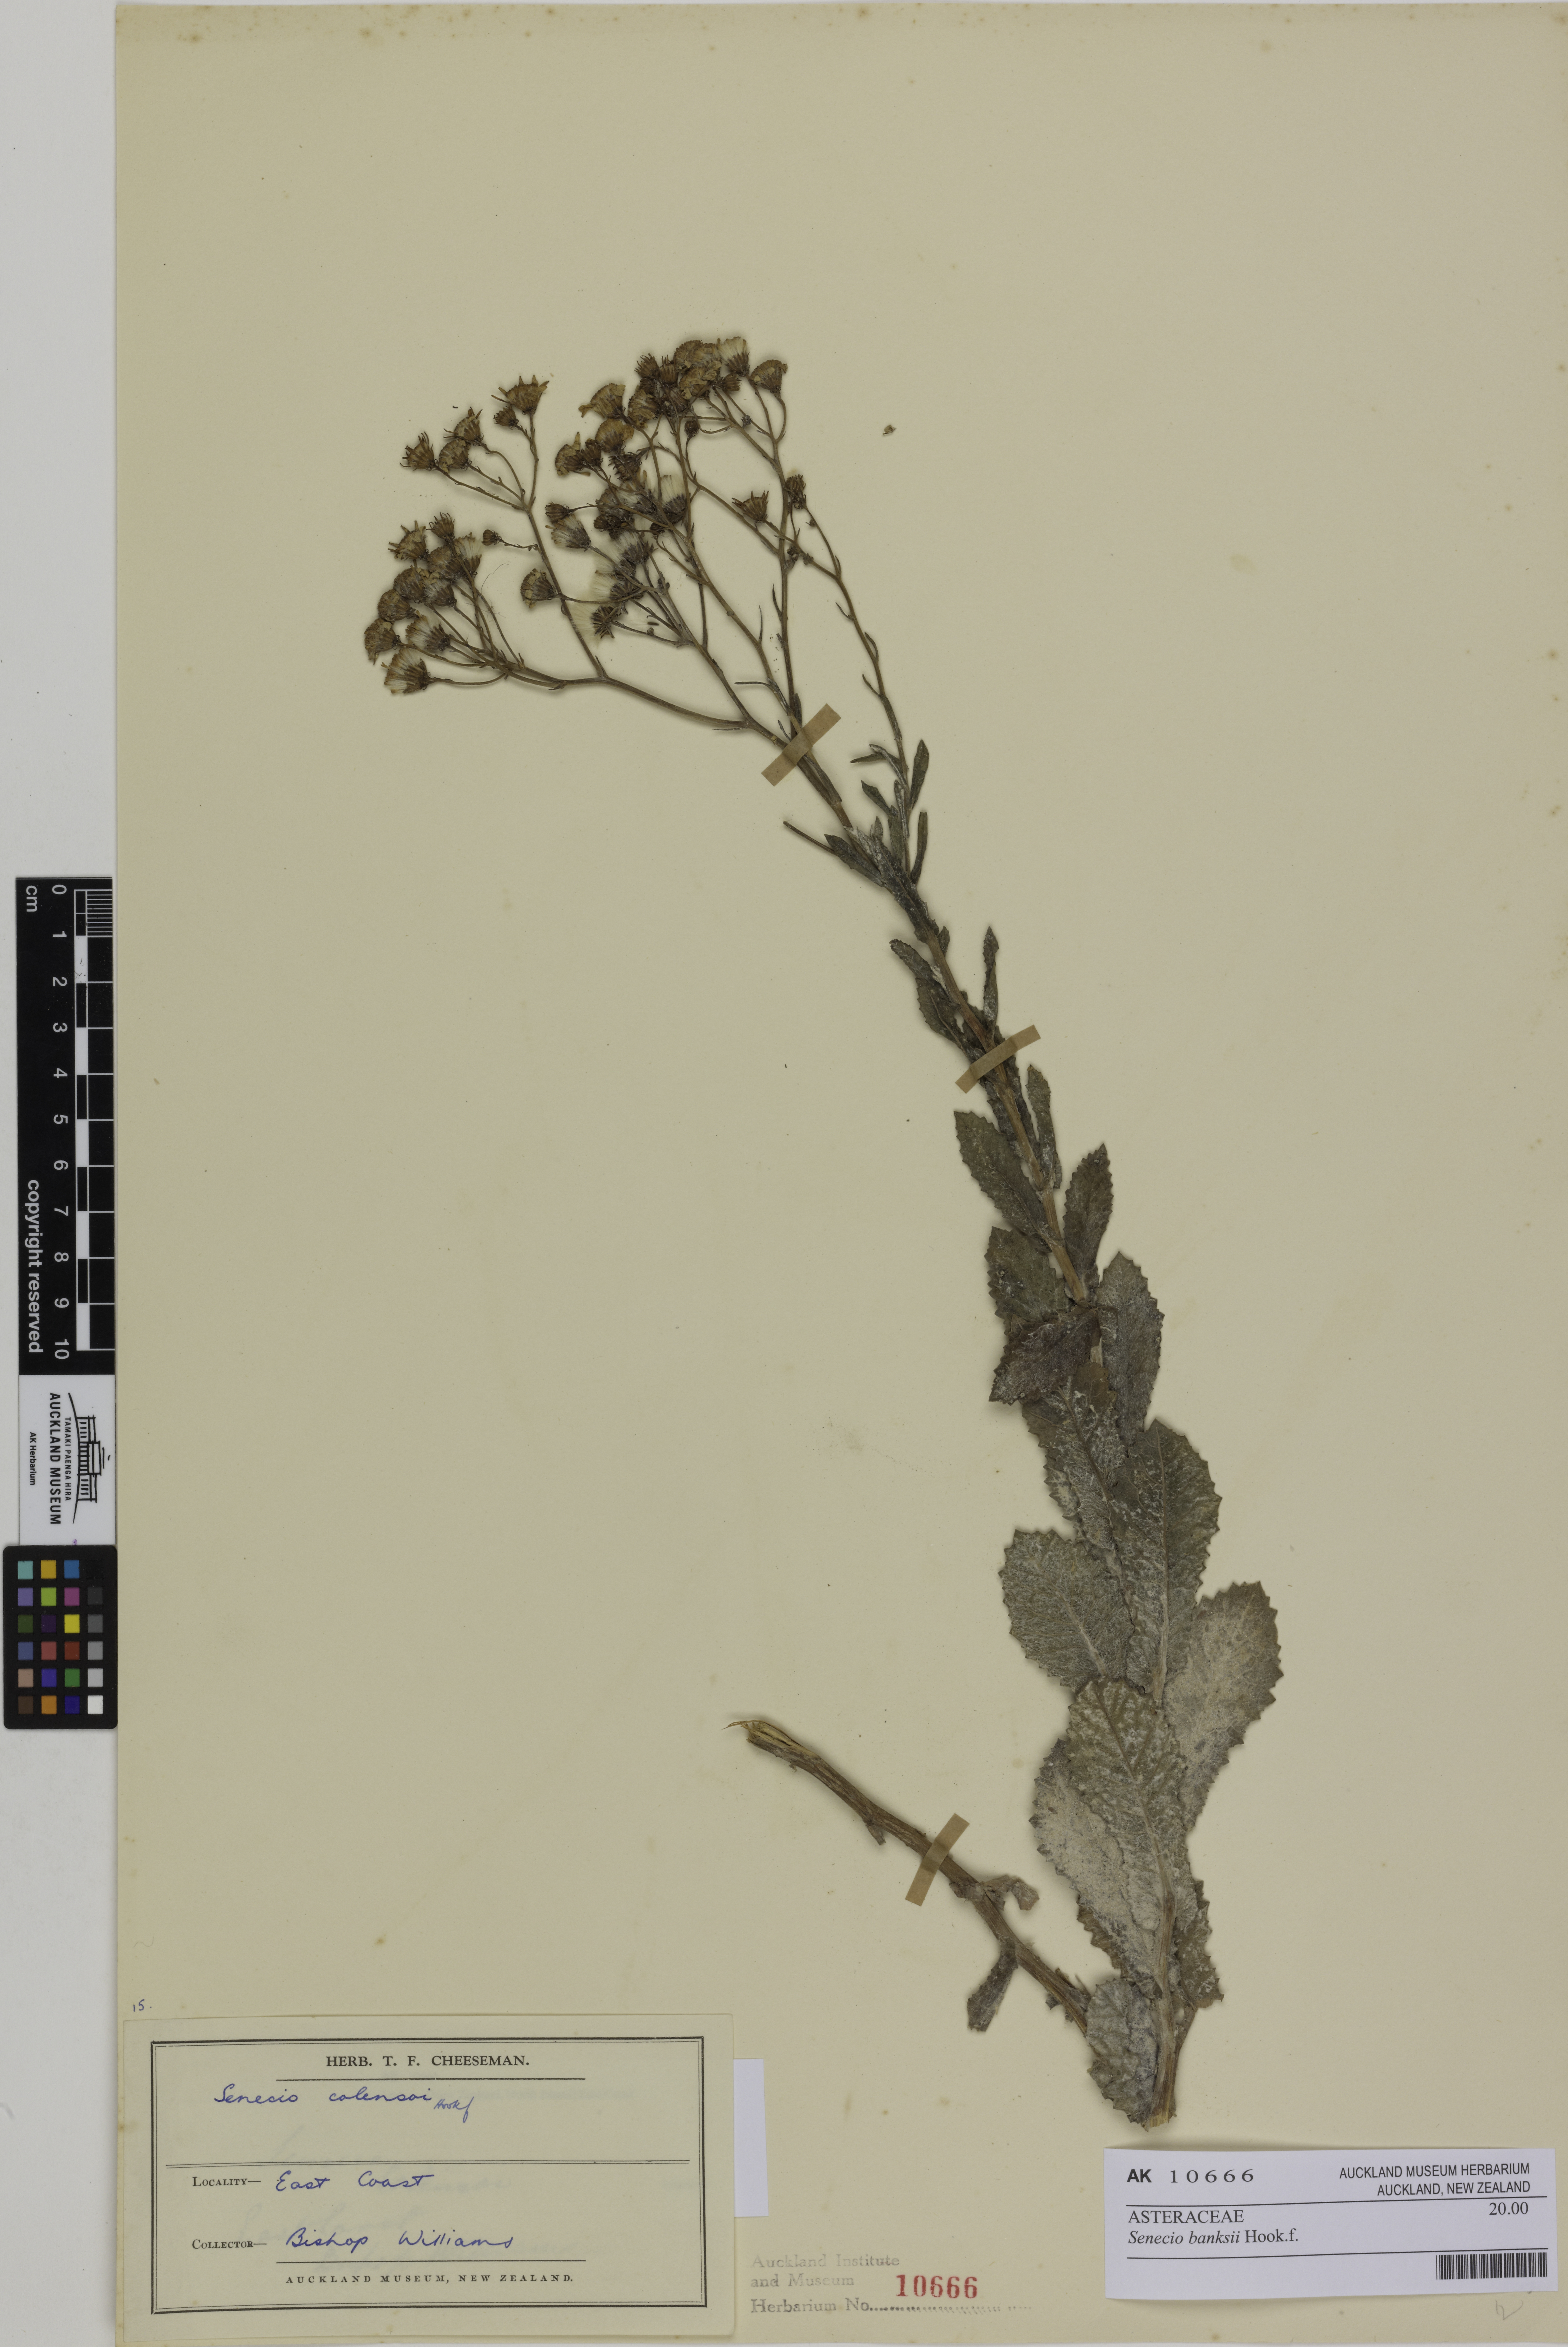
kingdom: Plantae
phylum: Tracheophyta
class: Magnoliopsida
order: Asterales
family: Asteraceae
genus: Senecio
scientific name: Senecio banksii
